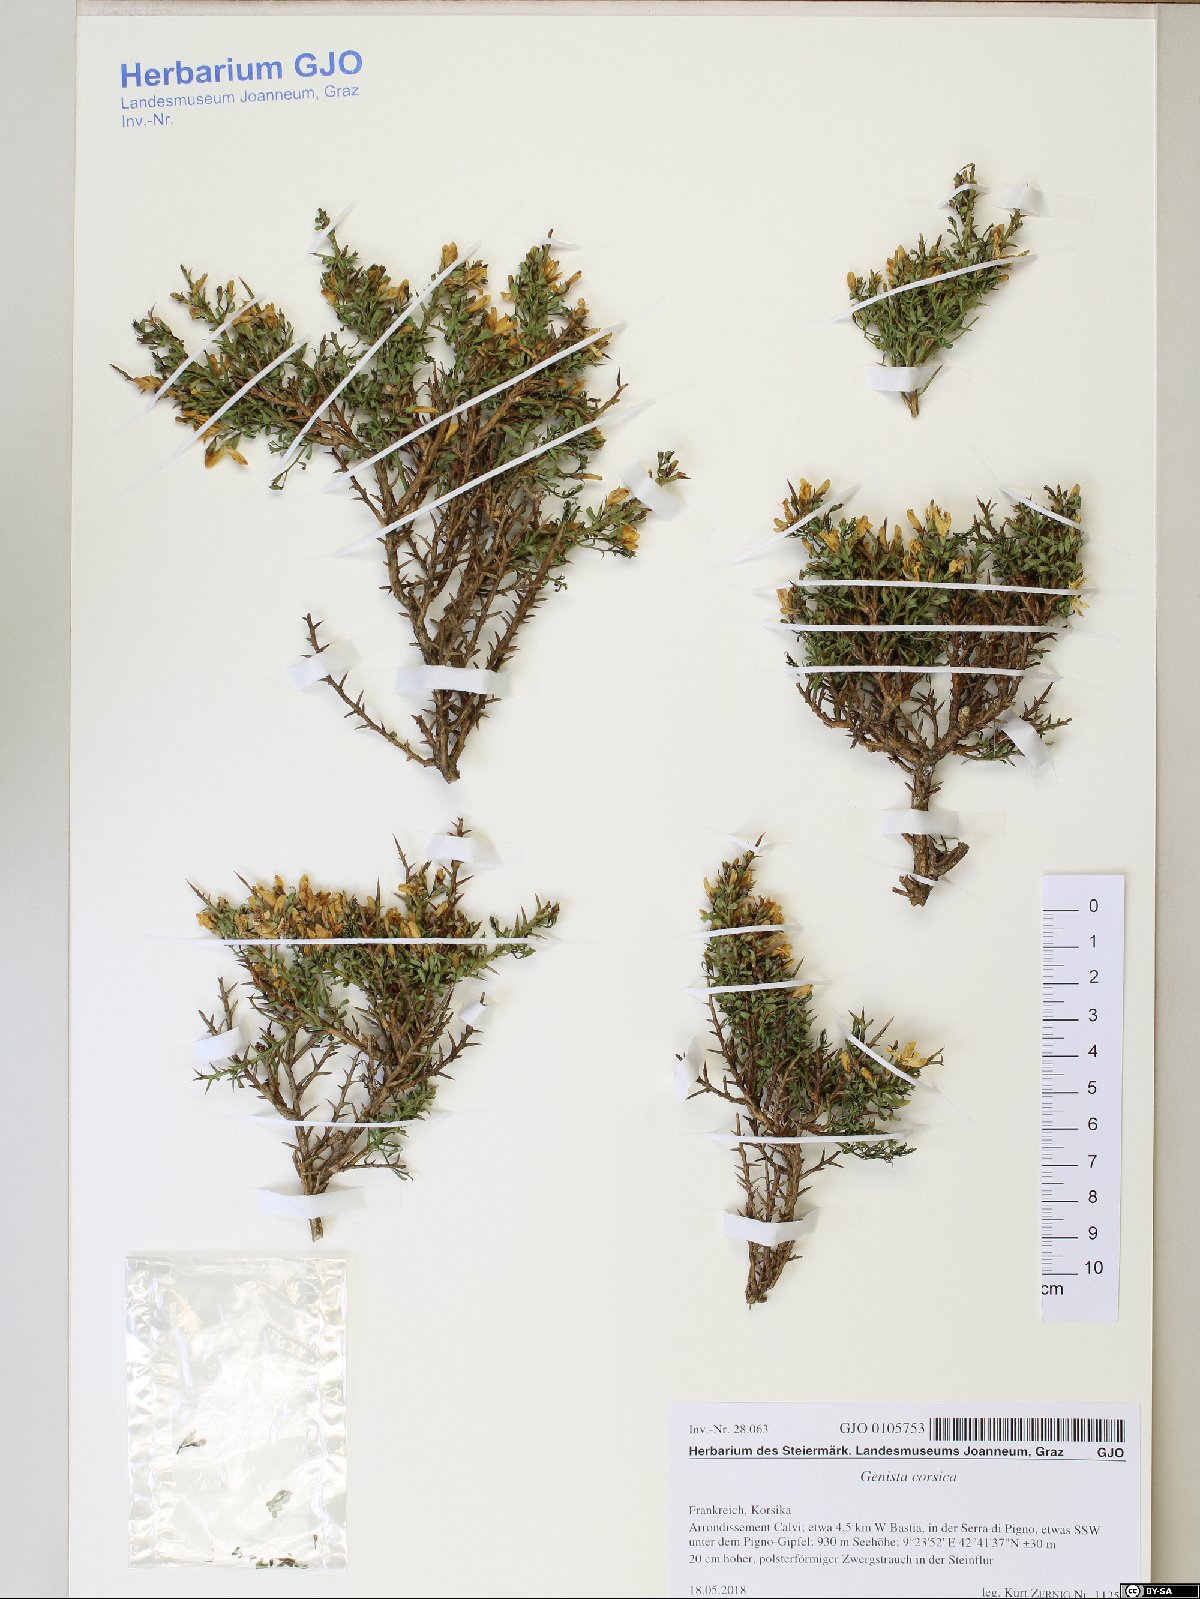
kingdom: Plantae
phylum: Tracheophyta
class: Magnoliopsida
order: Fabales
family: Fabaceae
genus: Genista
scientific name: Genista corsica
